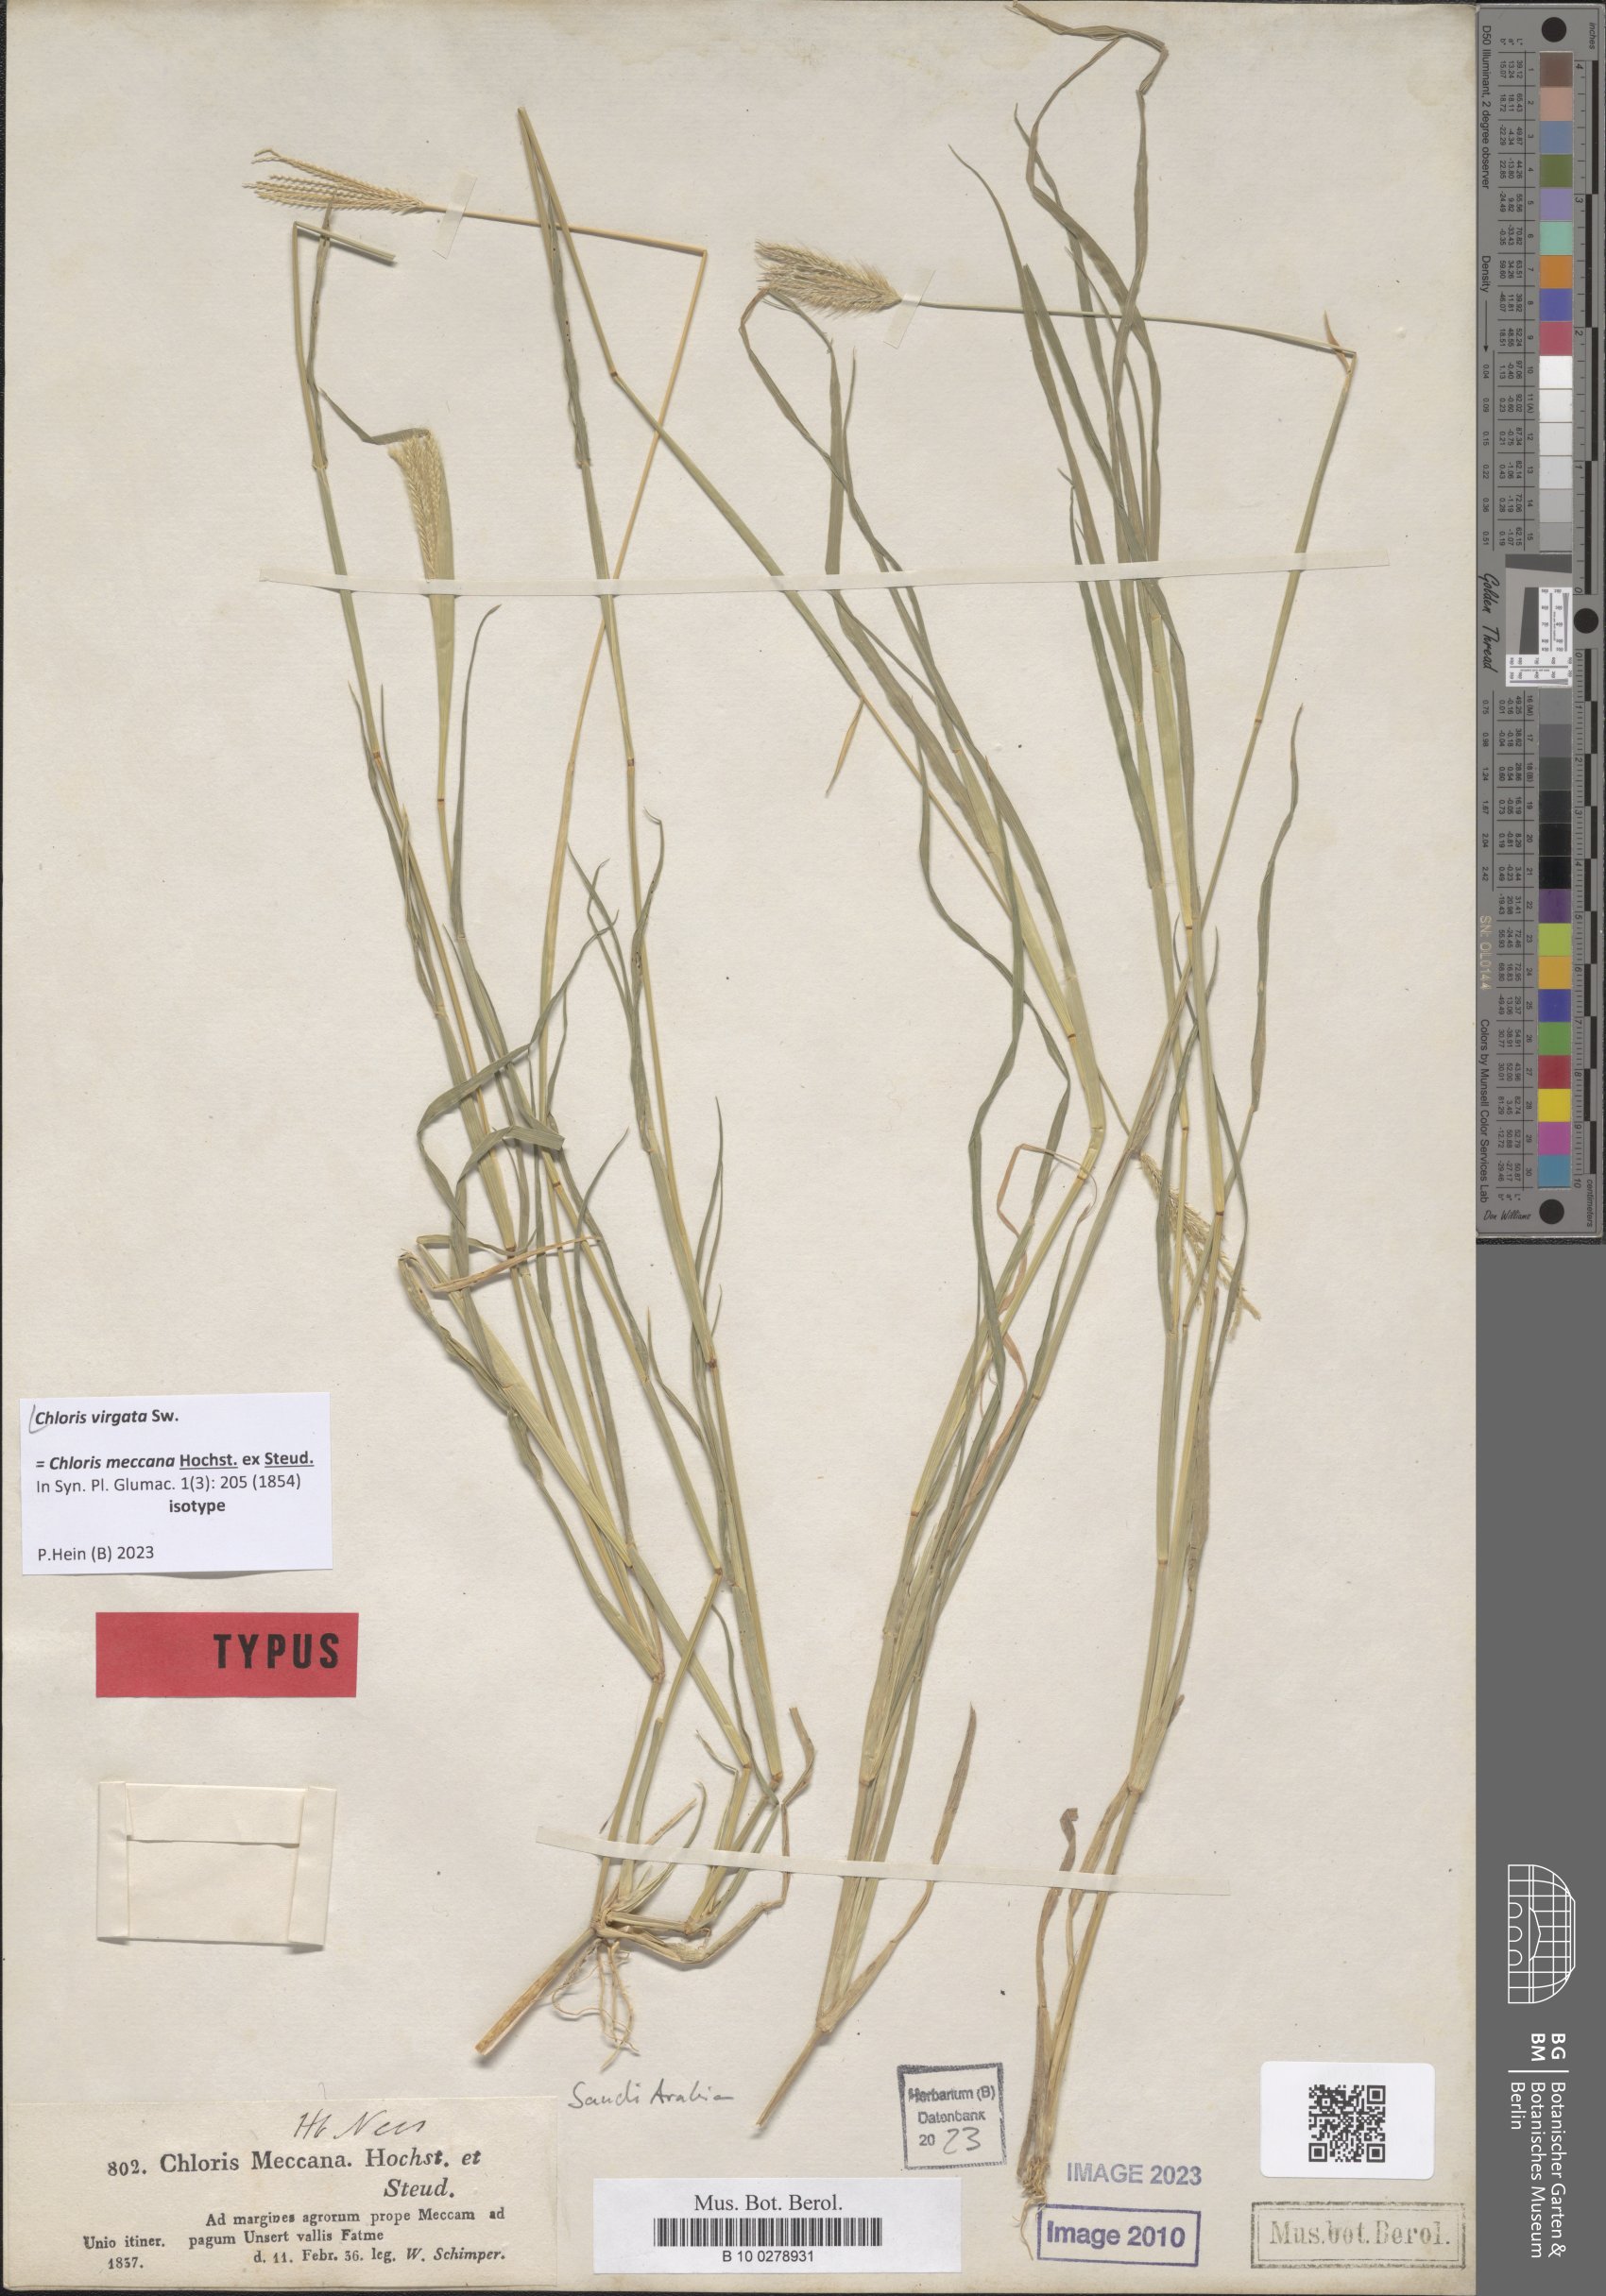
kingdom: Plantae
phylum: Tracheophyta
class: Liliopsida
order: Poales
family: Poaceae
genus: Chloris
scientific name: Chloris virgata
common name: Feathery rhodes-grass
